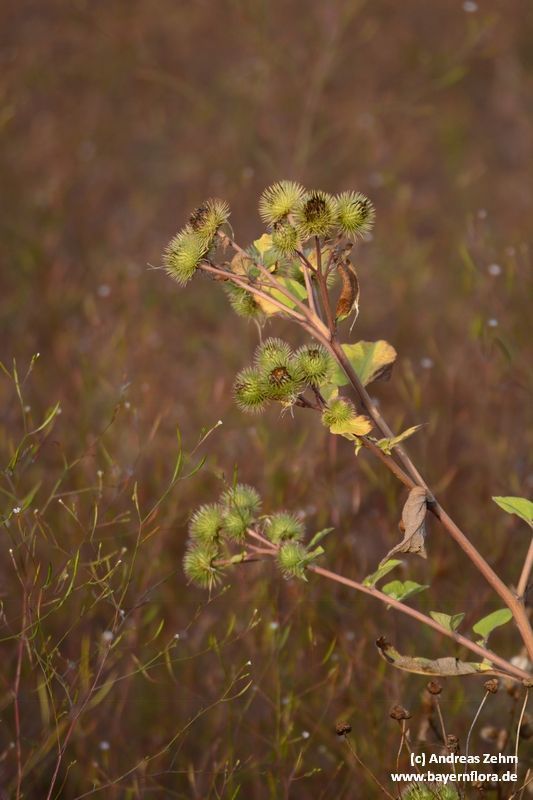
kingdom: Plantae
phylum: Tracheophyta
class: Magnoliopsida
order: Asterales
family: Asteraceae
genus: Arctium
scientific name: Arctium lappa
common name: Greater burdock
